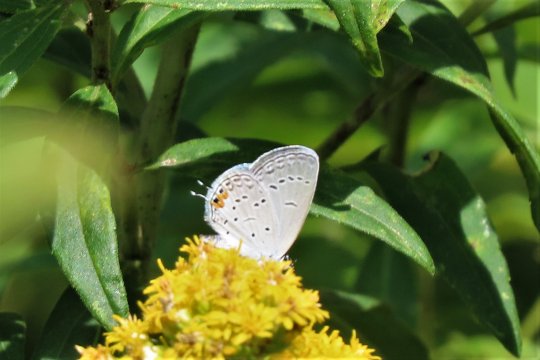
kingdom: Animalia
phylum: Arthropoda
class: Insecta
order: Lepidoptera
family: Lycaenidae
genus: Elkalyce
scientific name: Elkalyce comyntas
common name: Eastern Tailed-Blue
